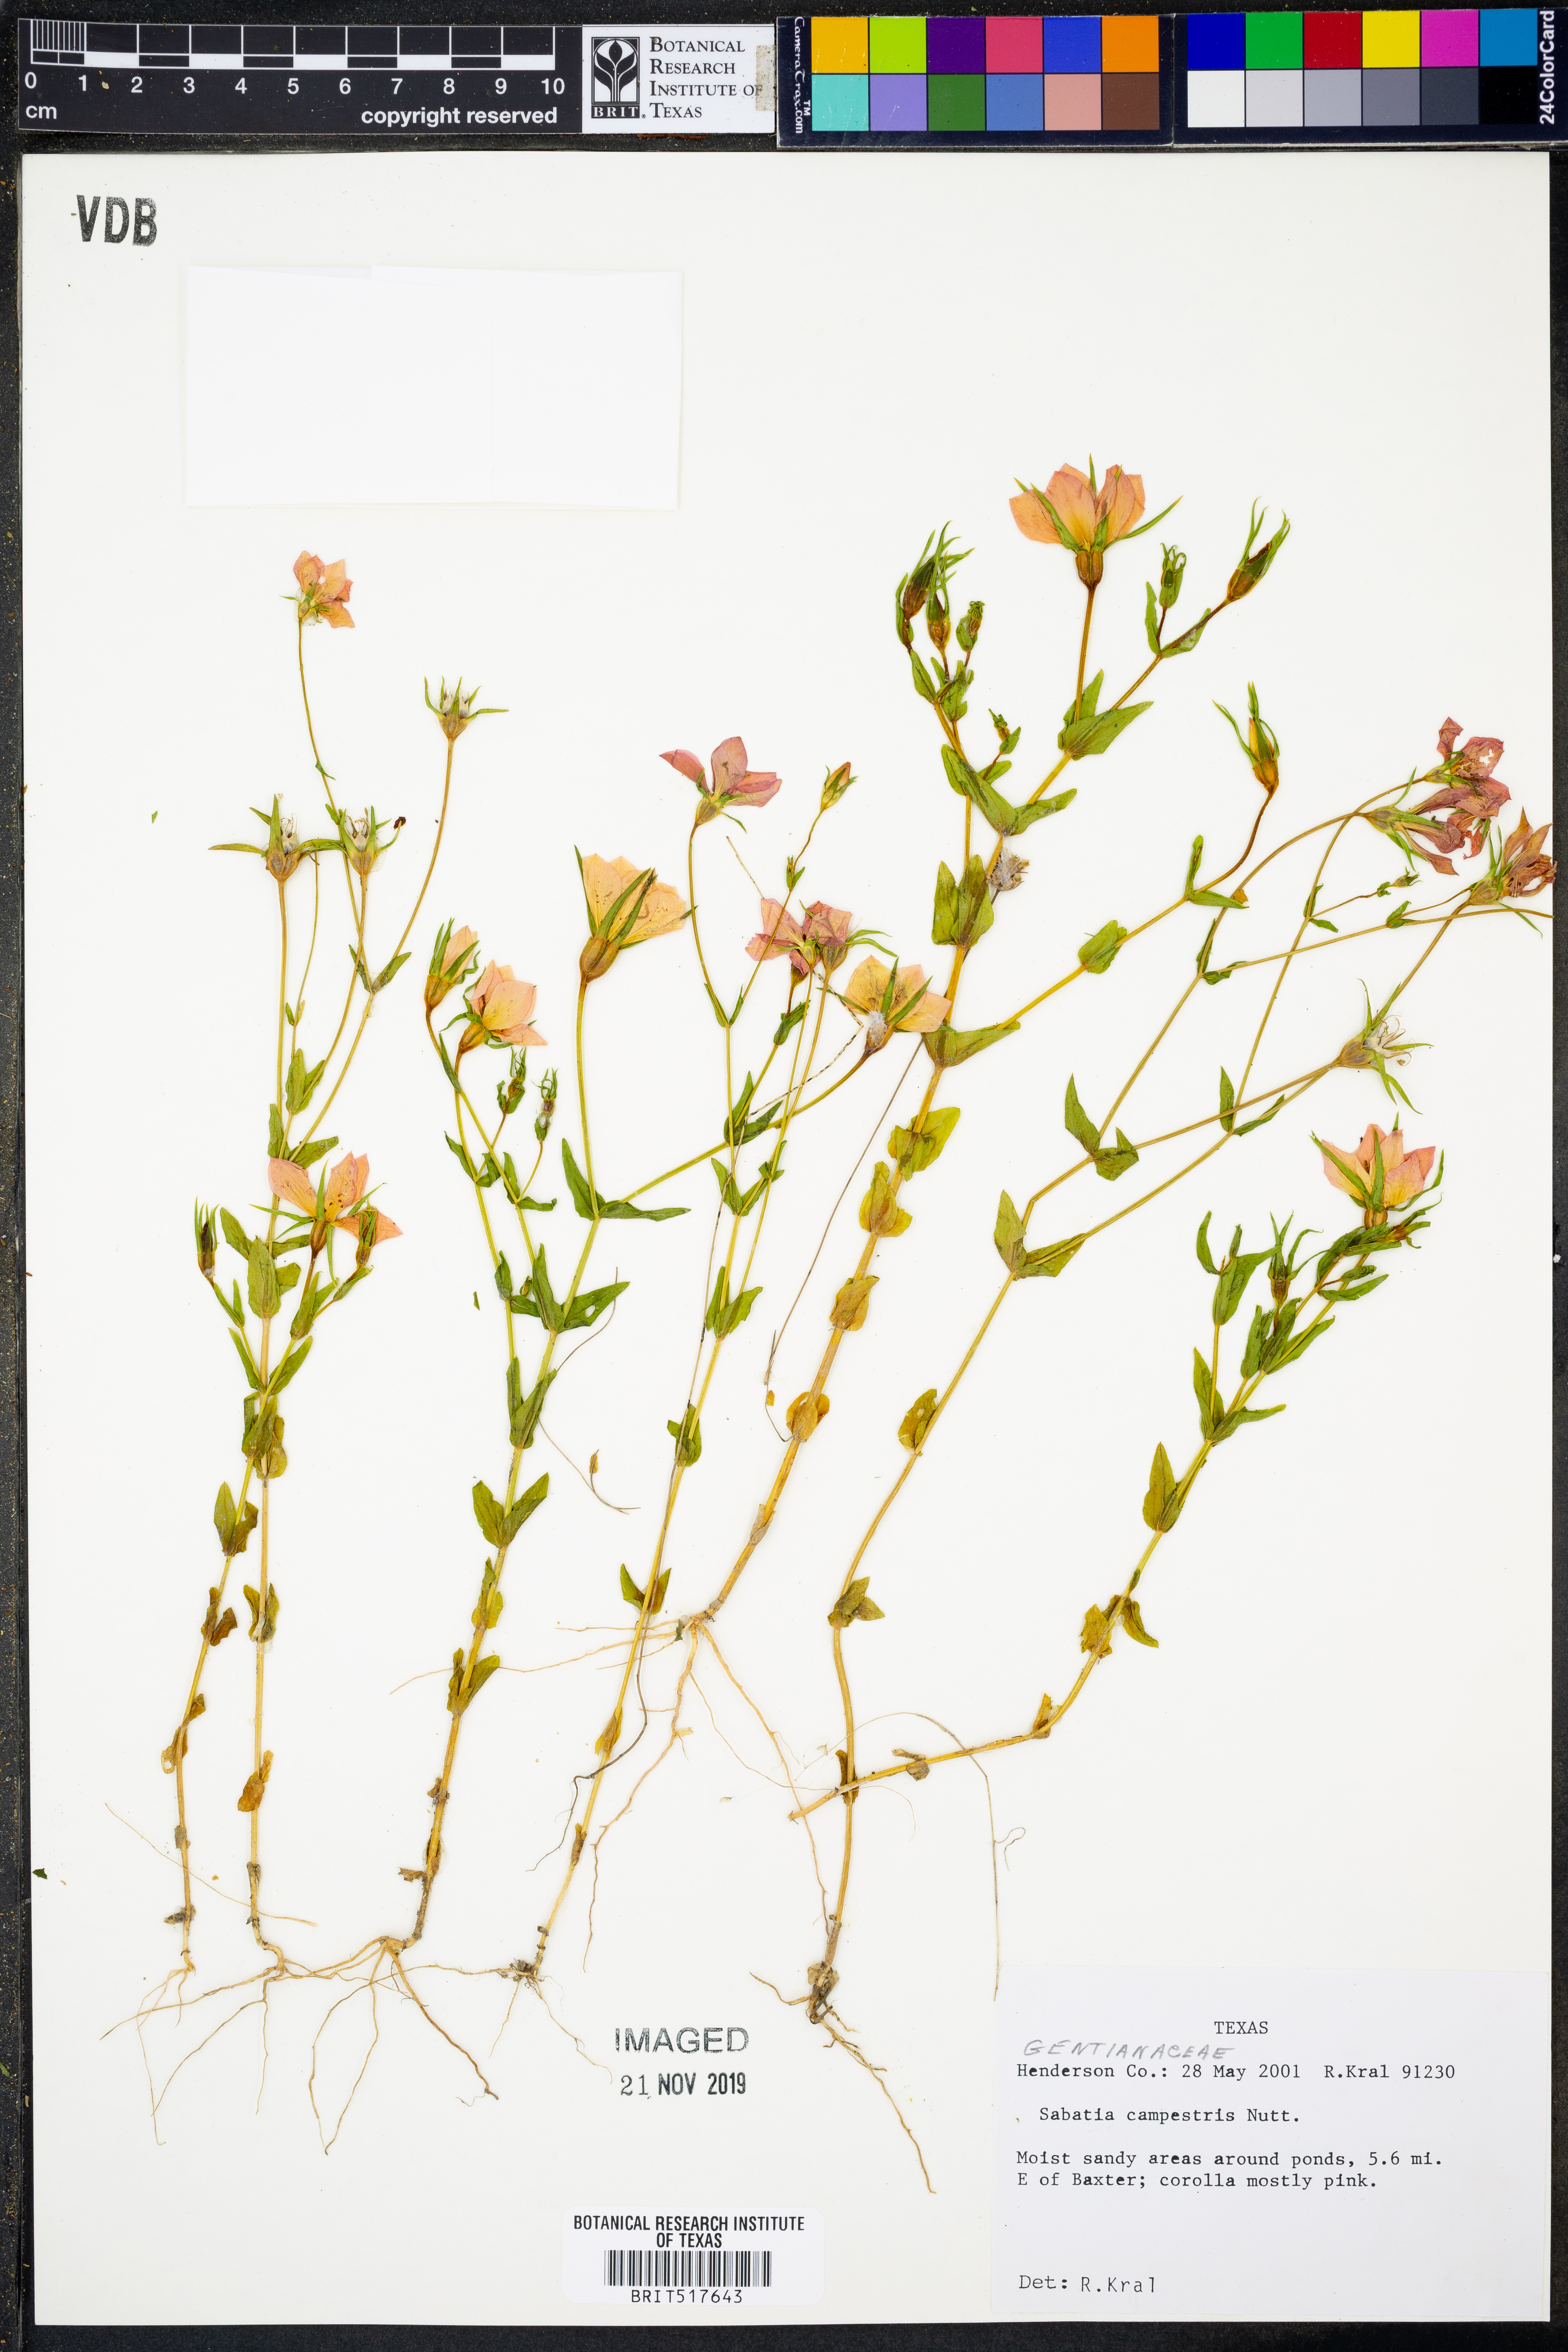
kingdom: Plantae
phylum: Tracheophyta
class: Magnoliopsida
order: Gentianales
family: Gentianaceae
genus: Sabatia
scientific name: Sabatia campestris
